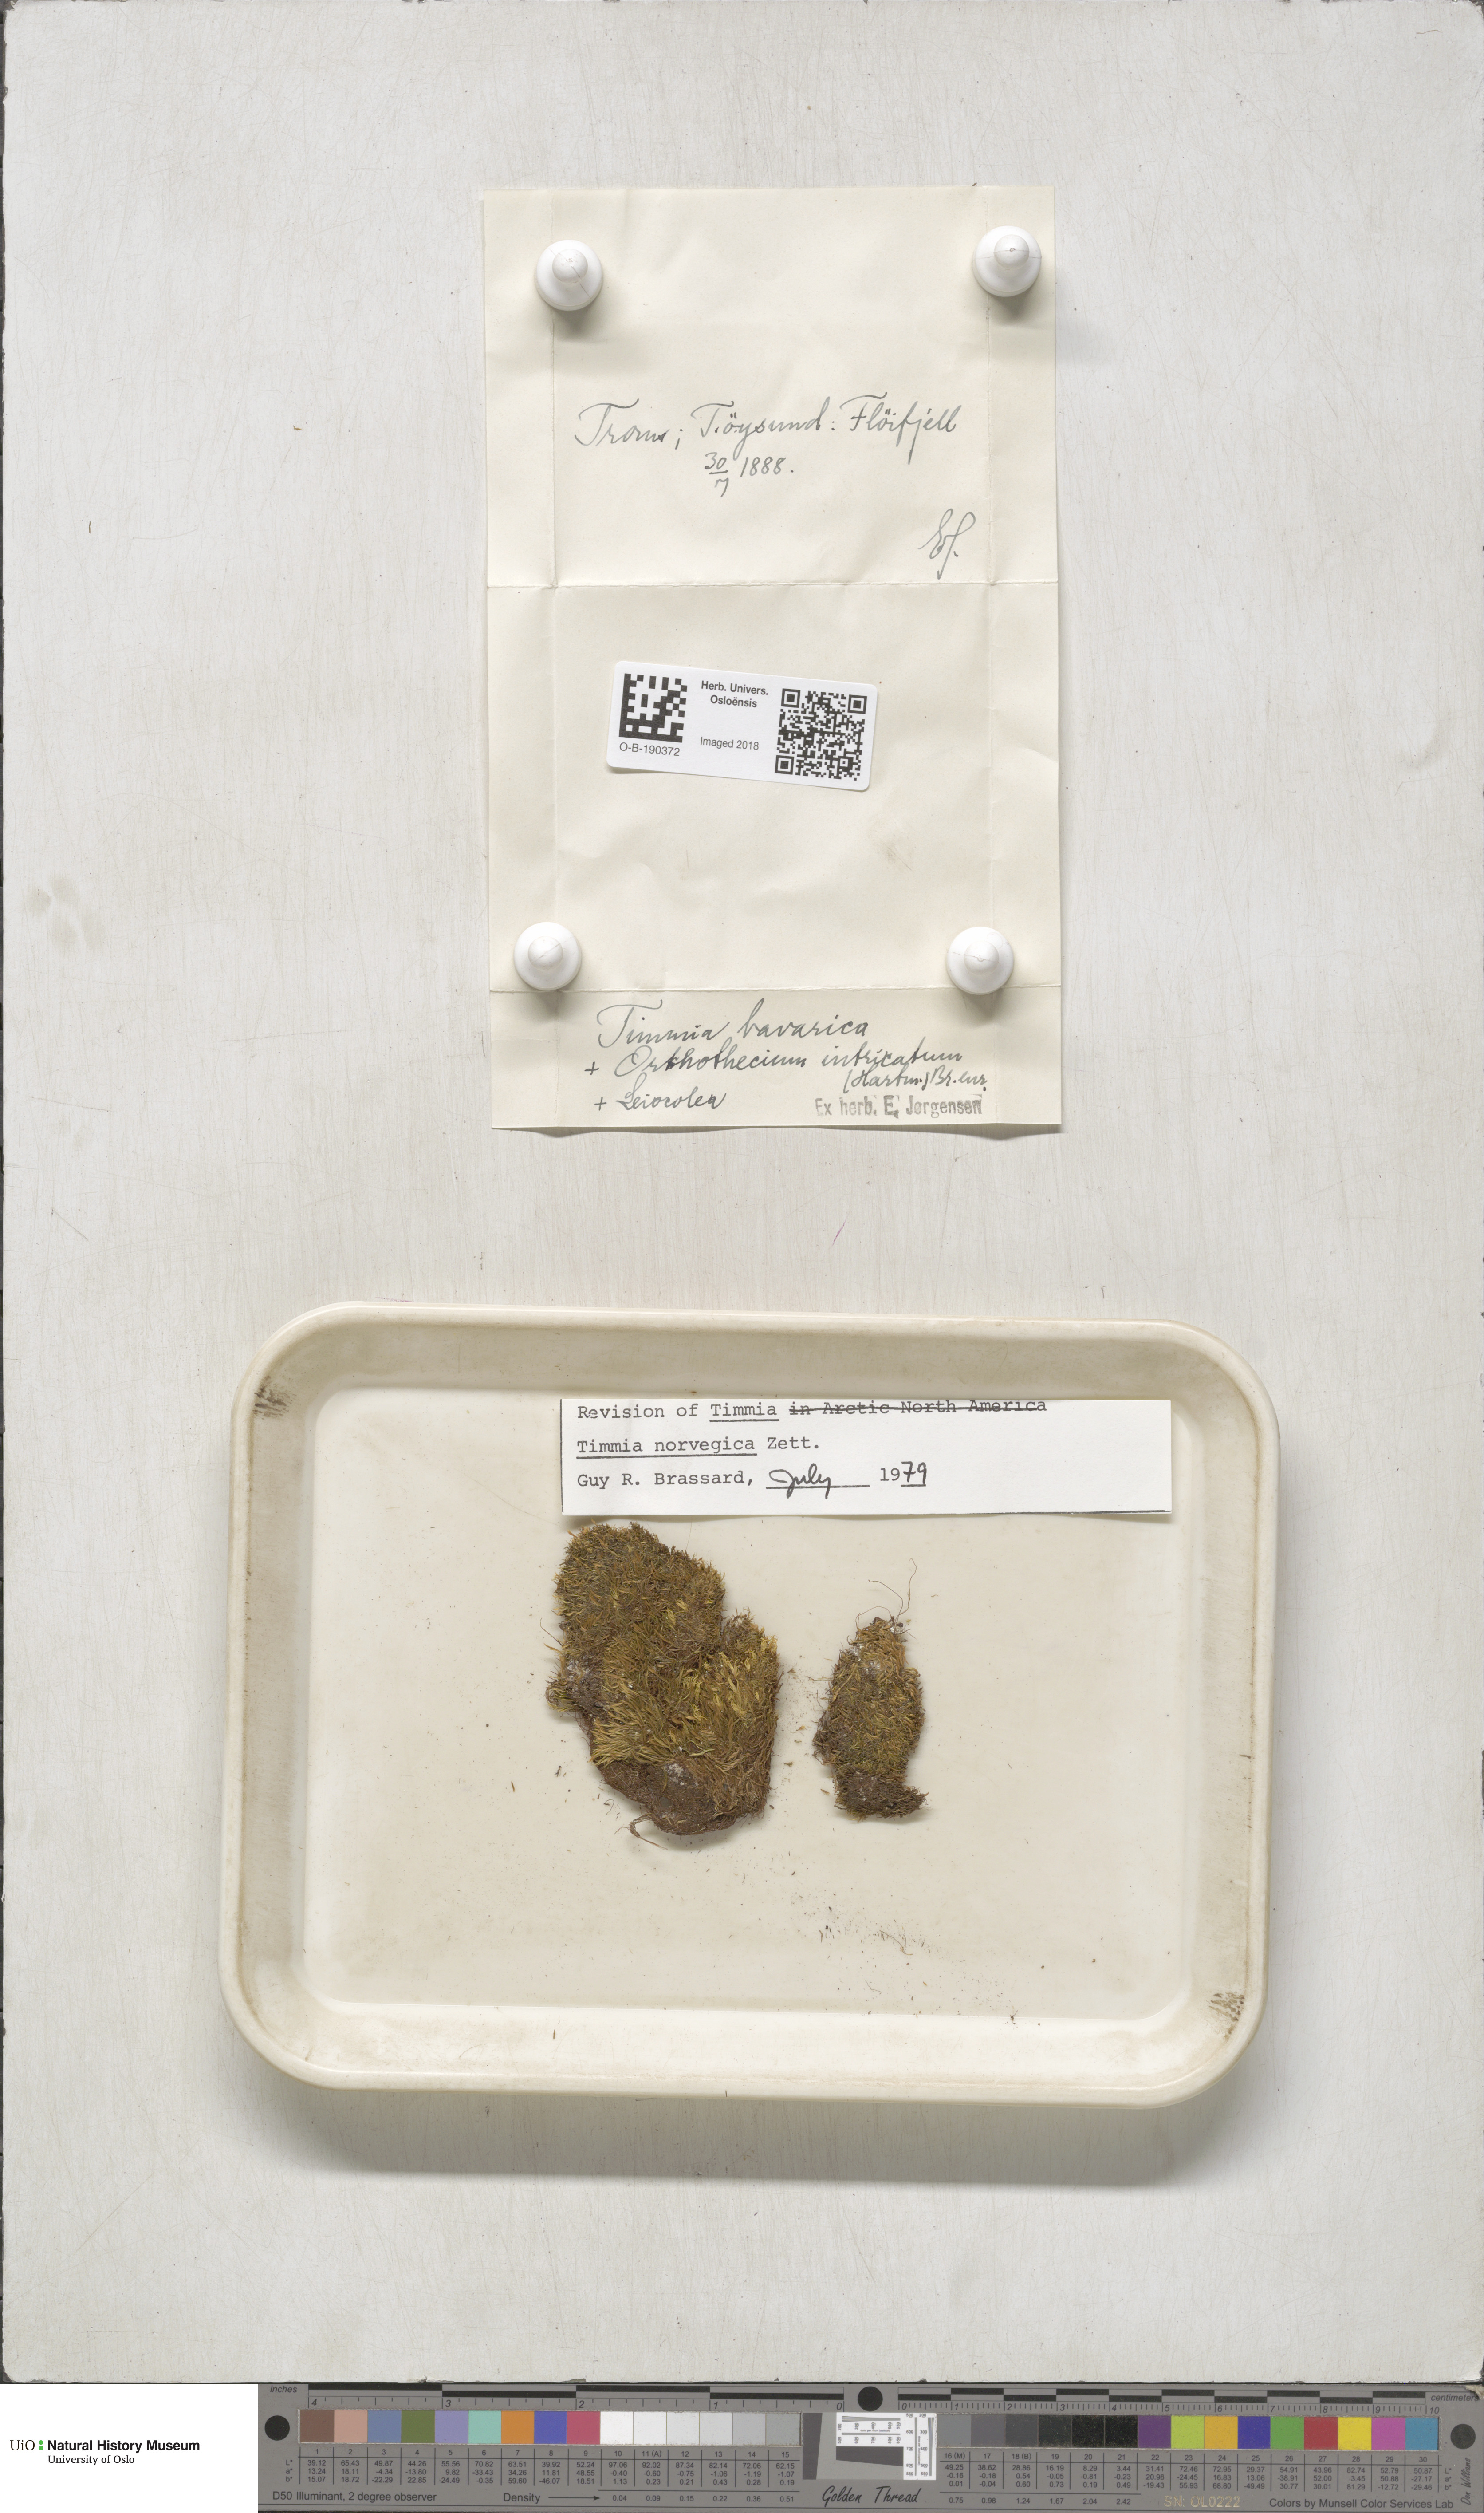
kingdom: Plantae
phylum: Bryophyta
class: Bryopsida
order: Timmiales
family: Timmiaceae
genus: Timmia
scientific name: Timmia norvegica
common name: Norway timmia
